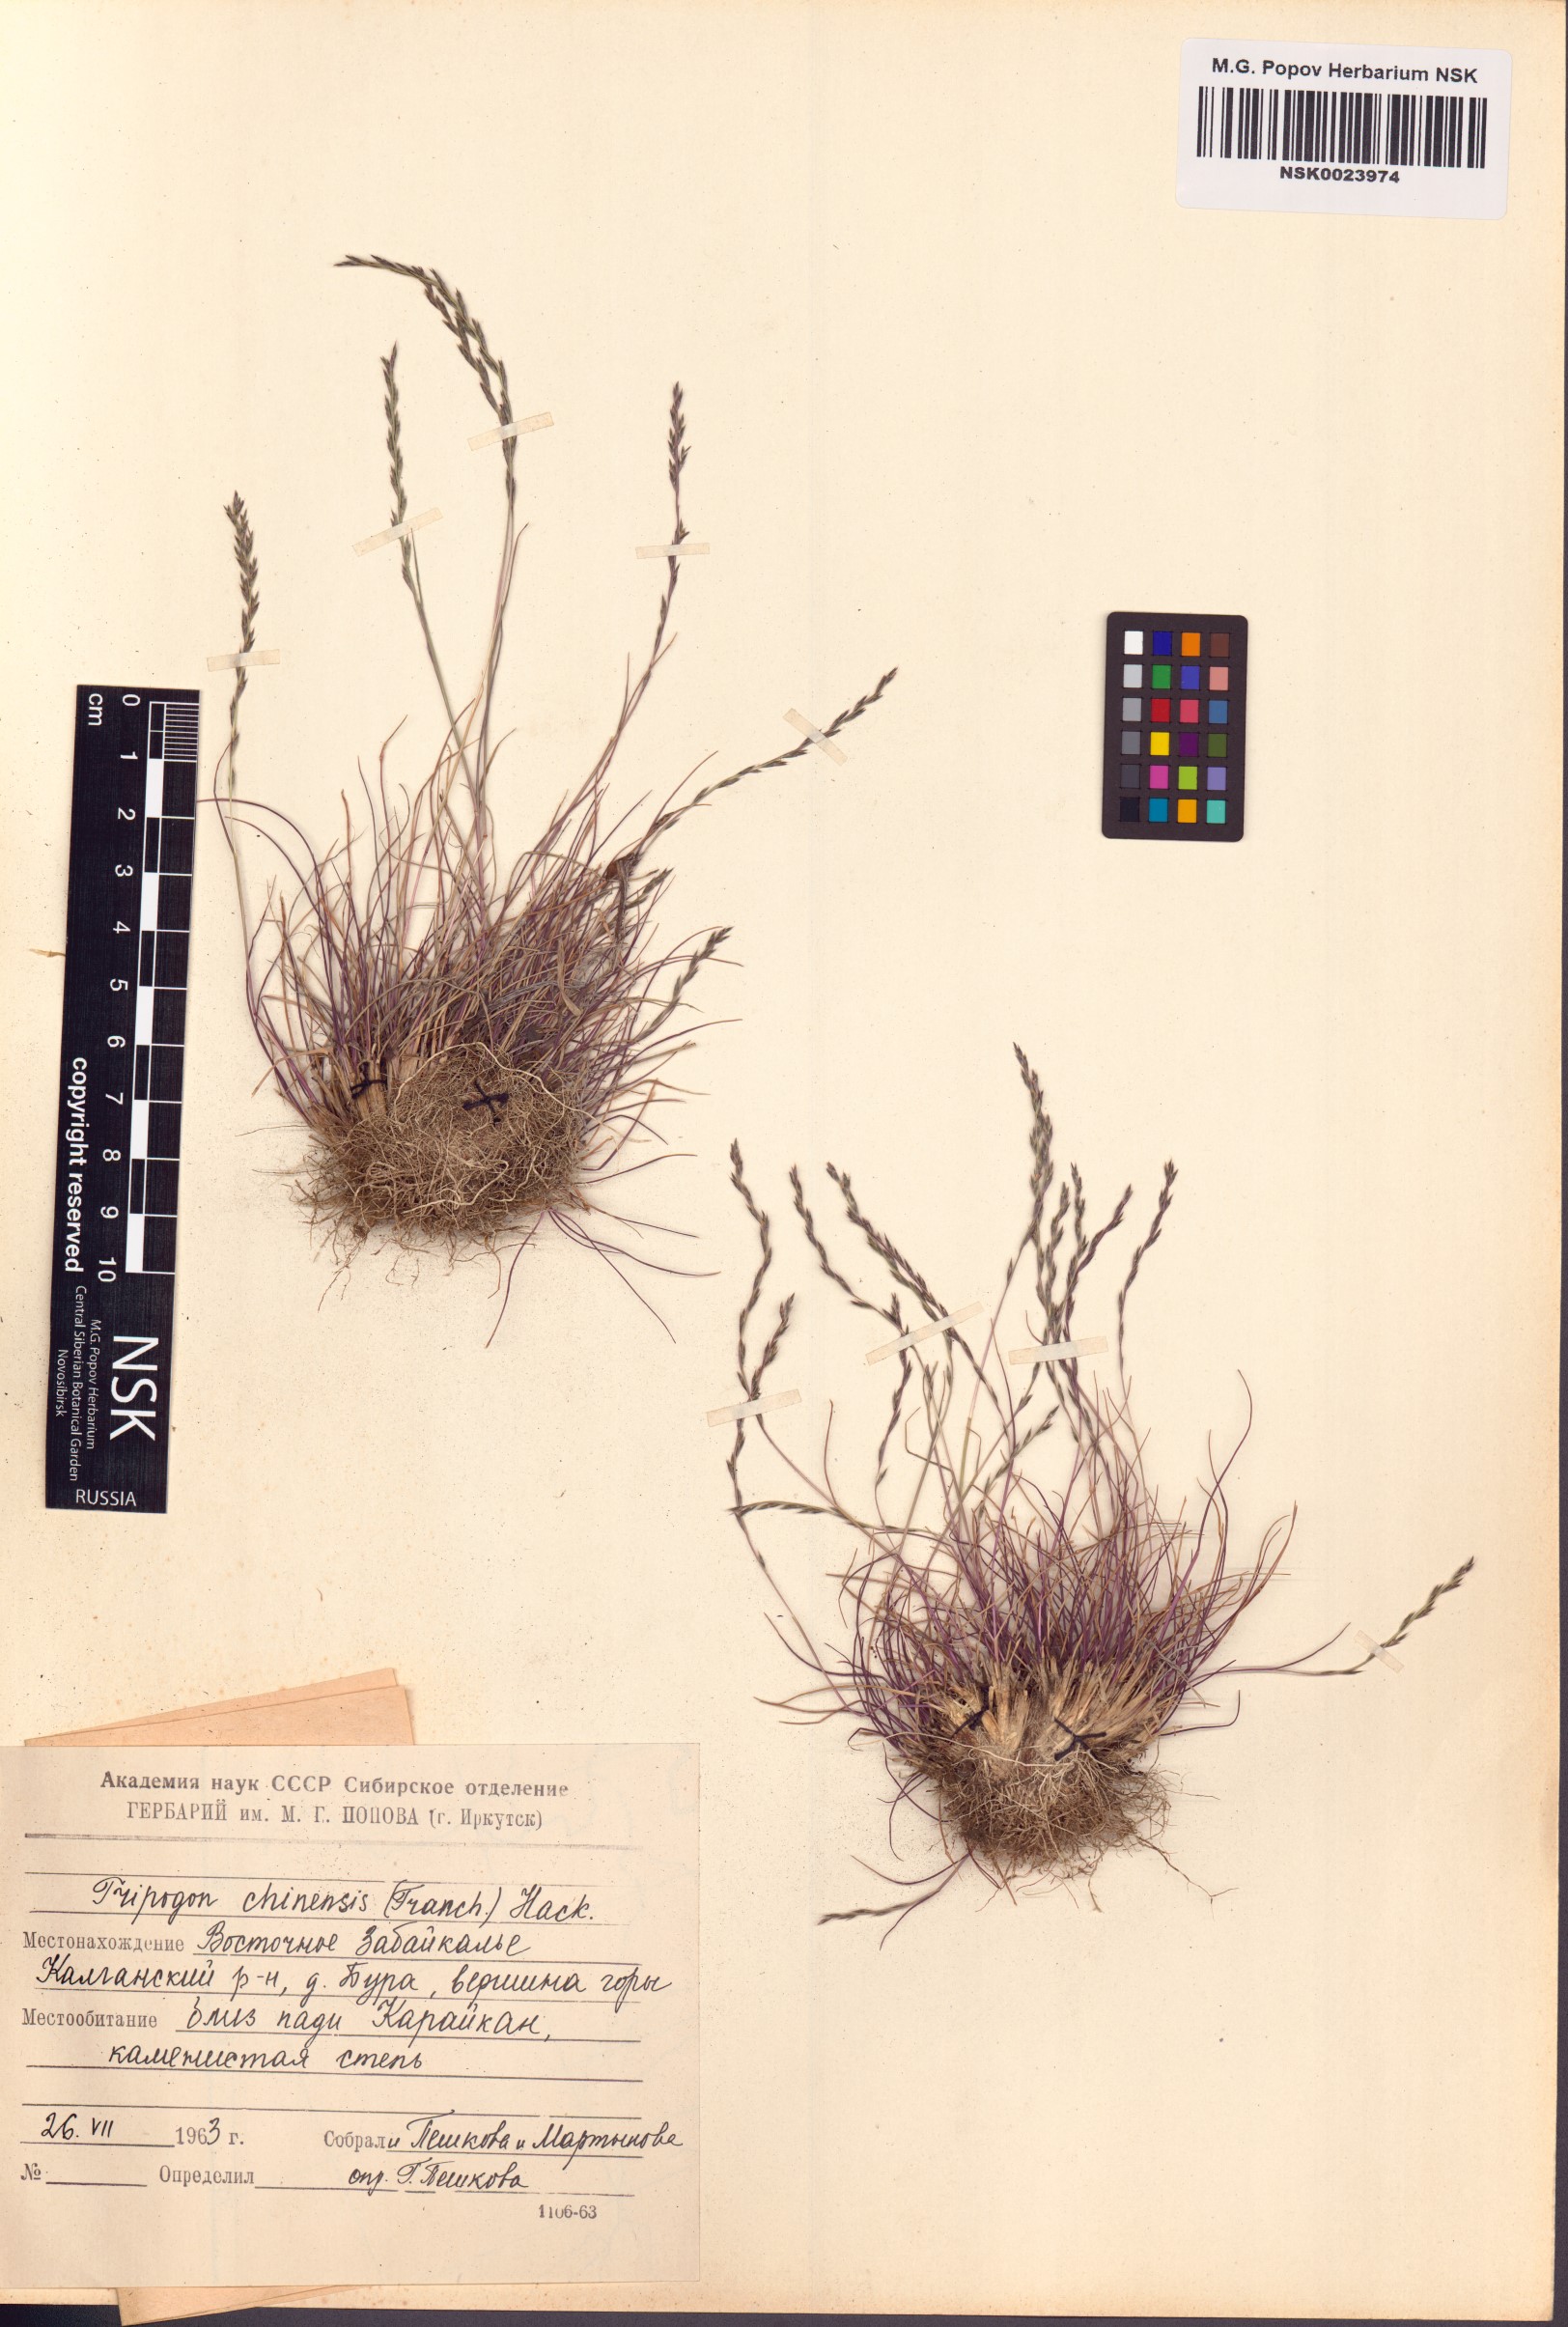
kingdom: Plantae
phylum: Tracheophyta
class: Liliopsida
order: Poales
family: Poaceae
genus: Tripogon
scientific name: Tripogon chinensis
